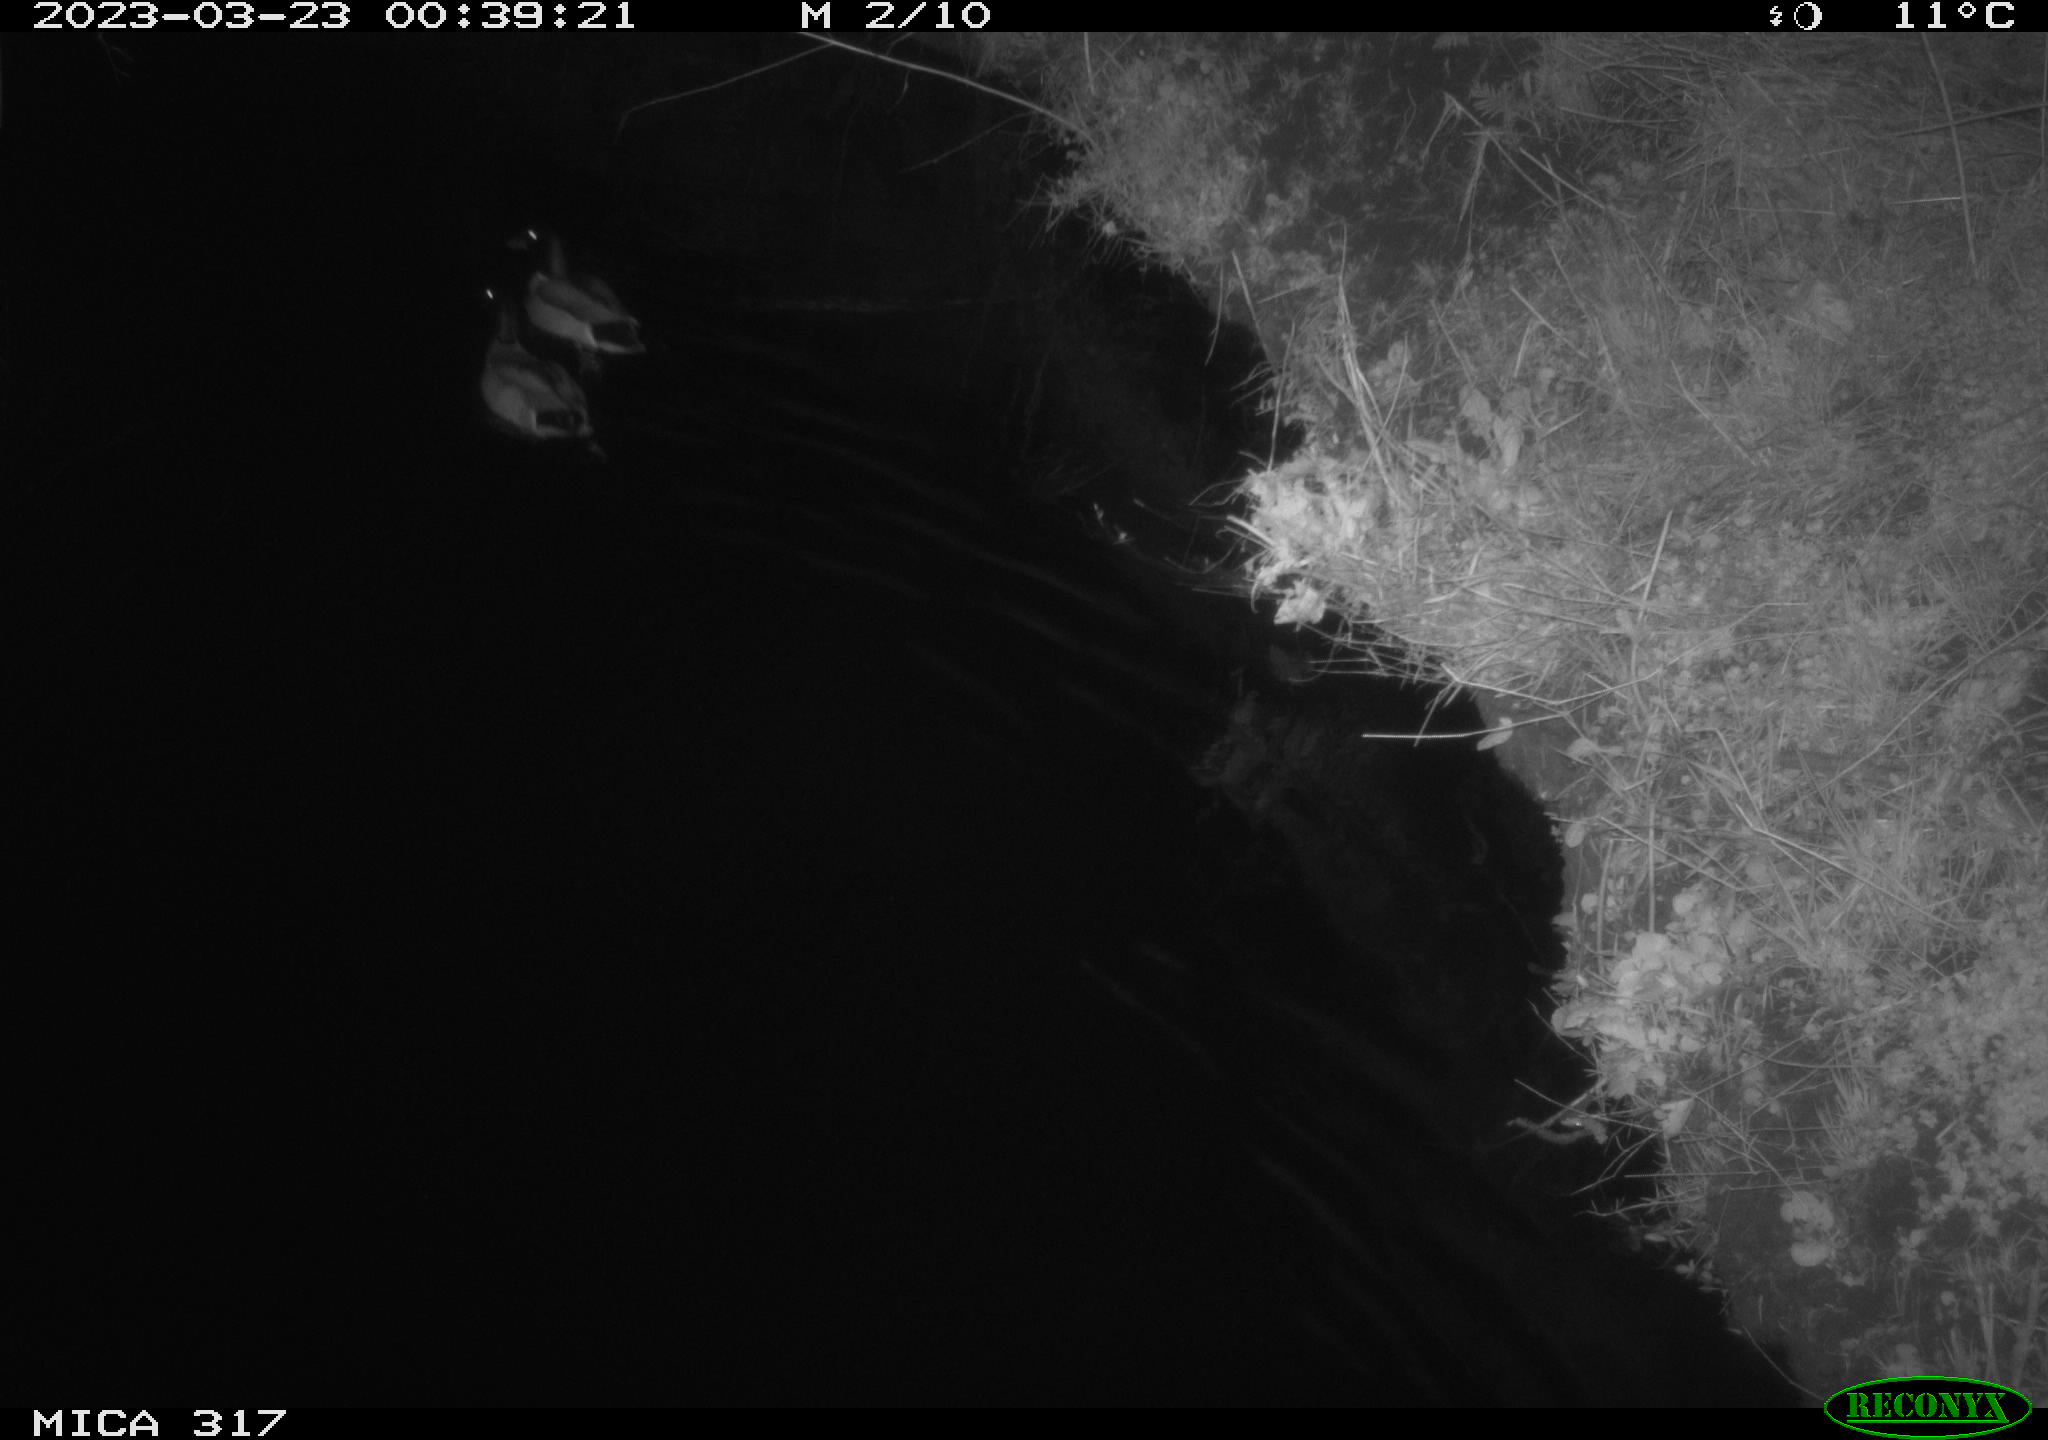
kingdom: Animalia
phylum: Chordata
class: Aves
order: Anseriformes
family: Anatidae
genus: Anas
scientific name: Anas
